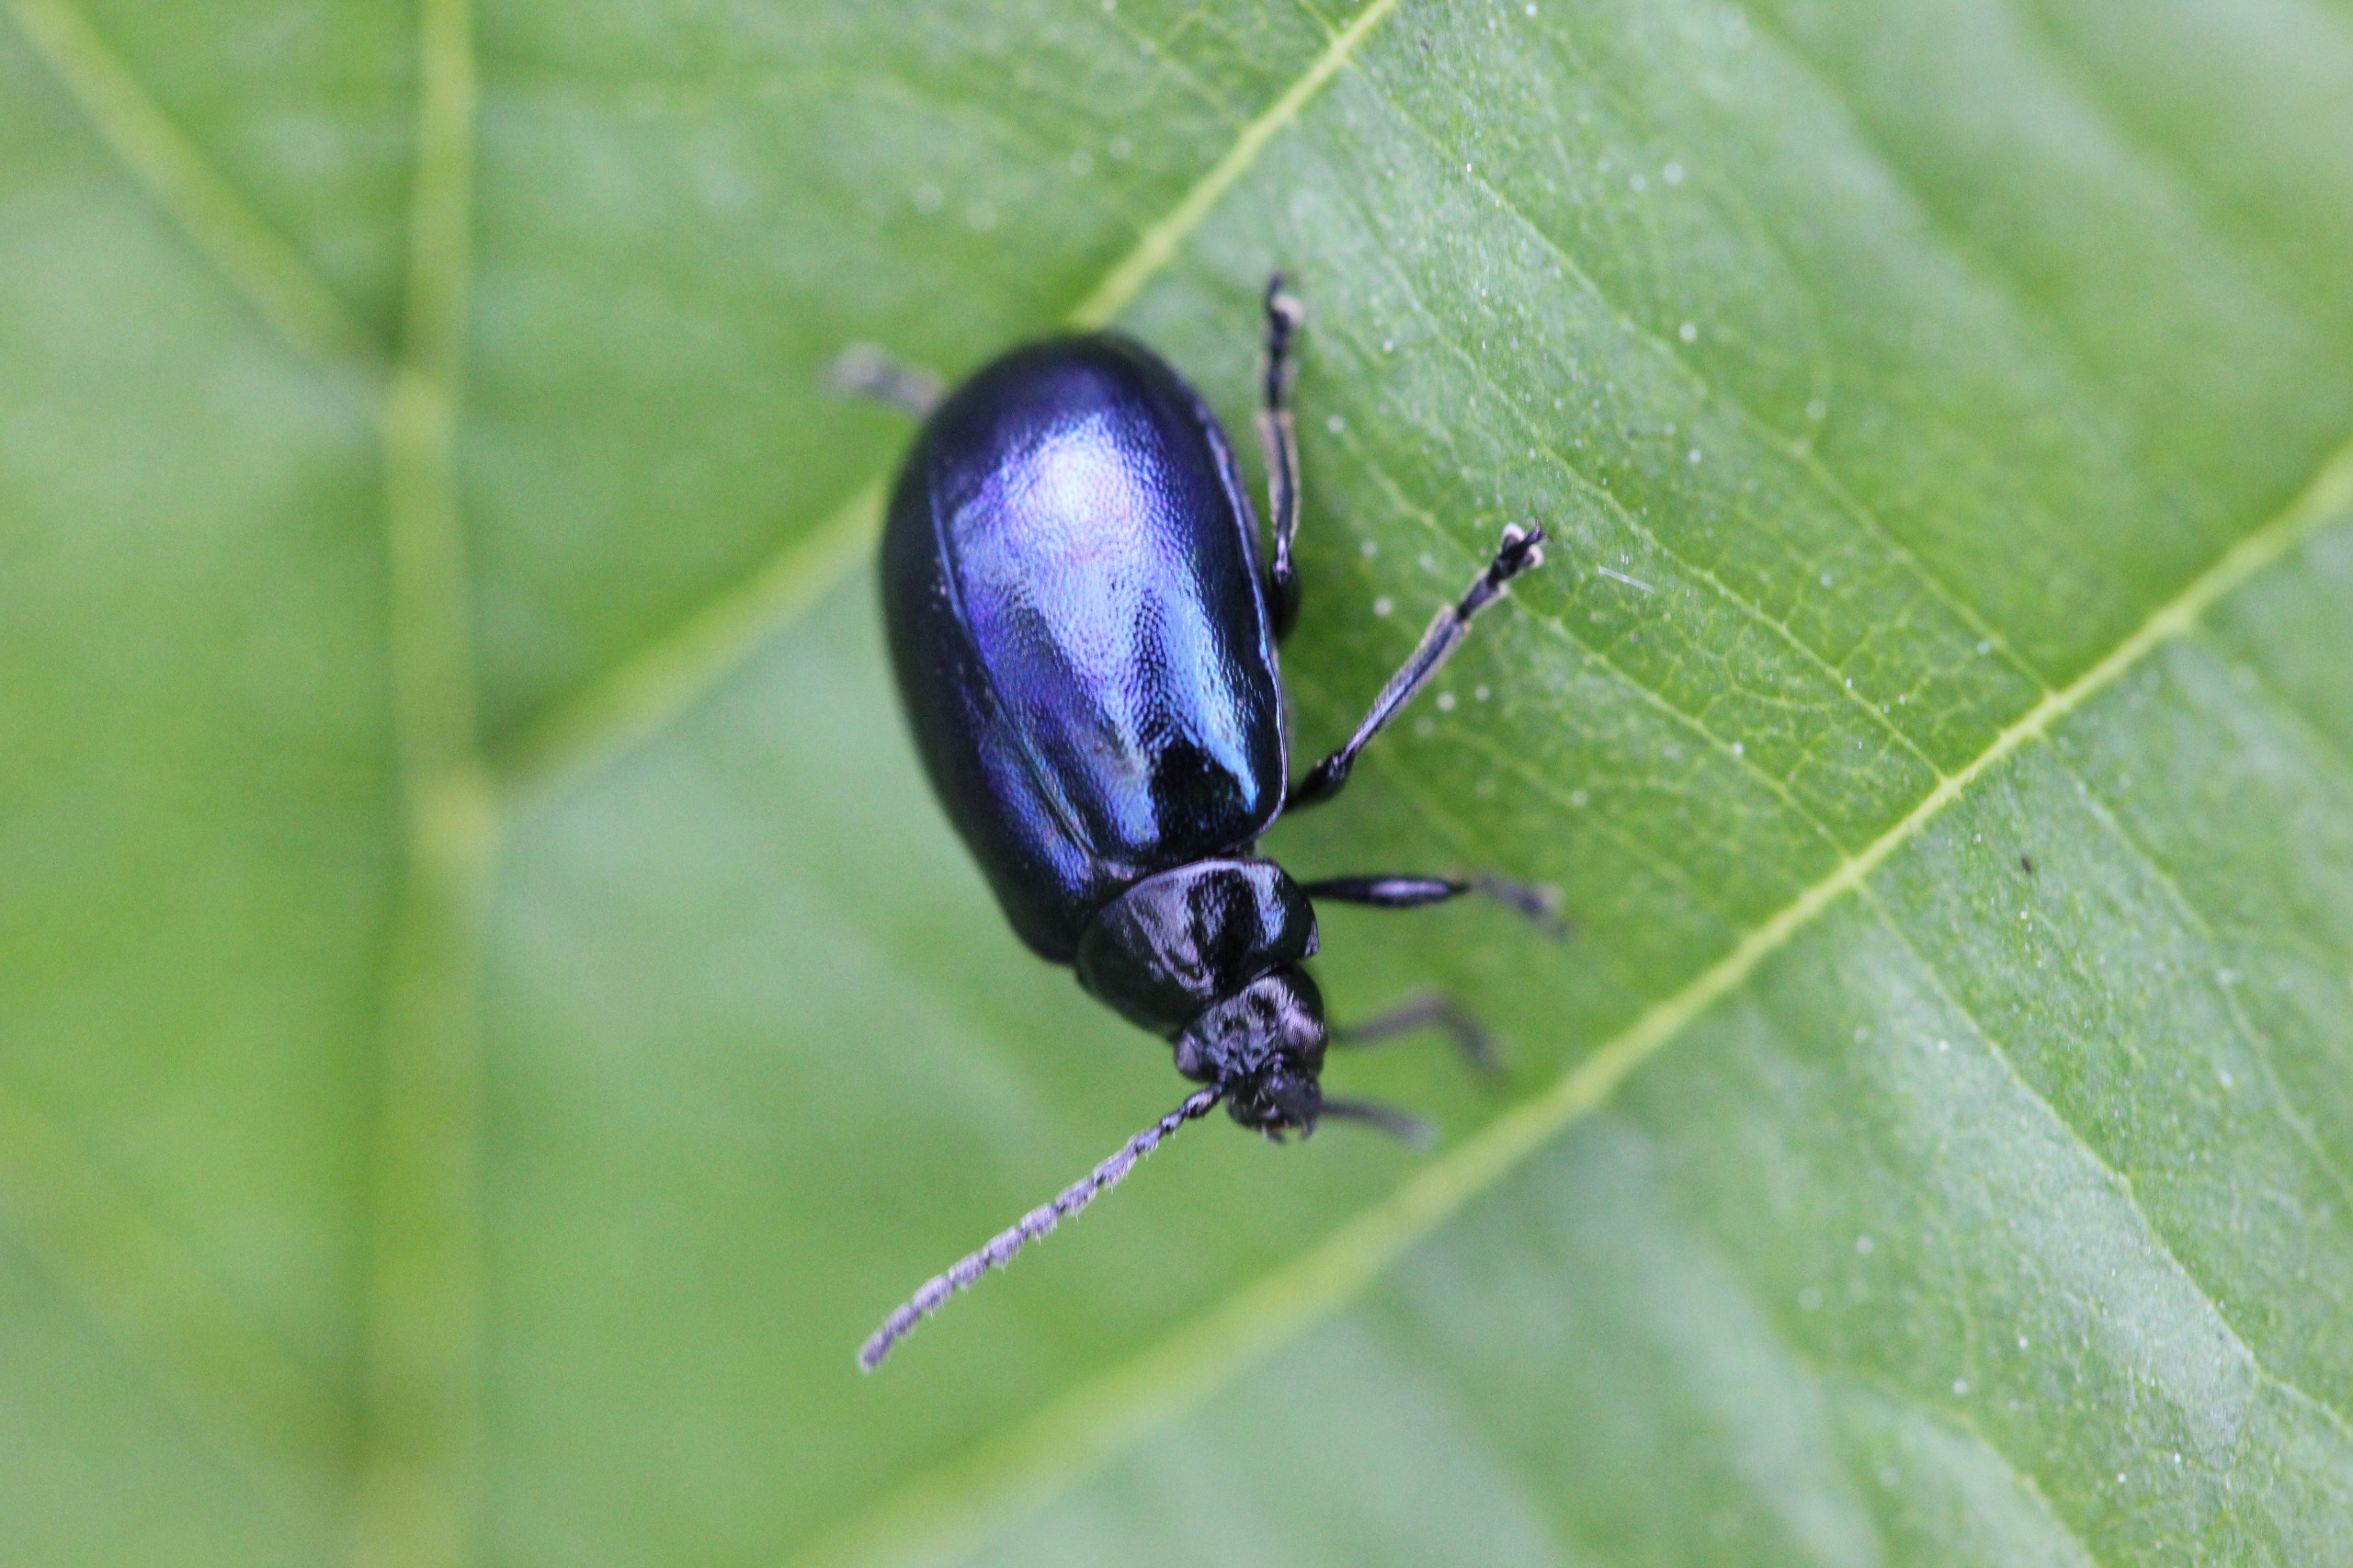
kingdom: Animalia
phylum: Arthropoda
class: Insecta
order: Coleoptera
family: Chrysomelidae
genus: Agelastica
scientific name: Agelastica alni
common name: Ellebladbille
